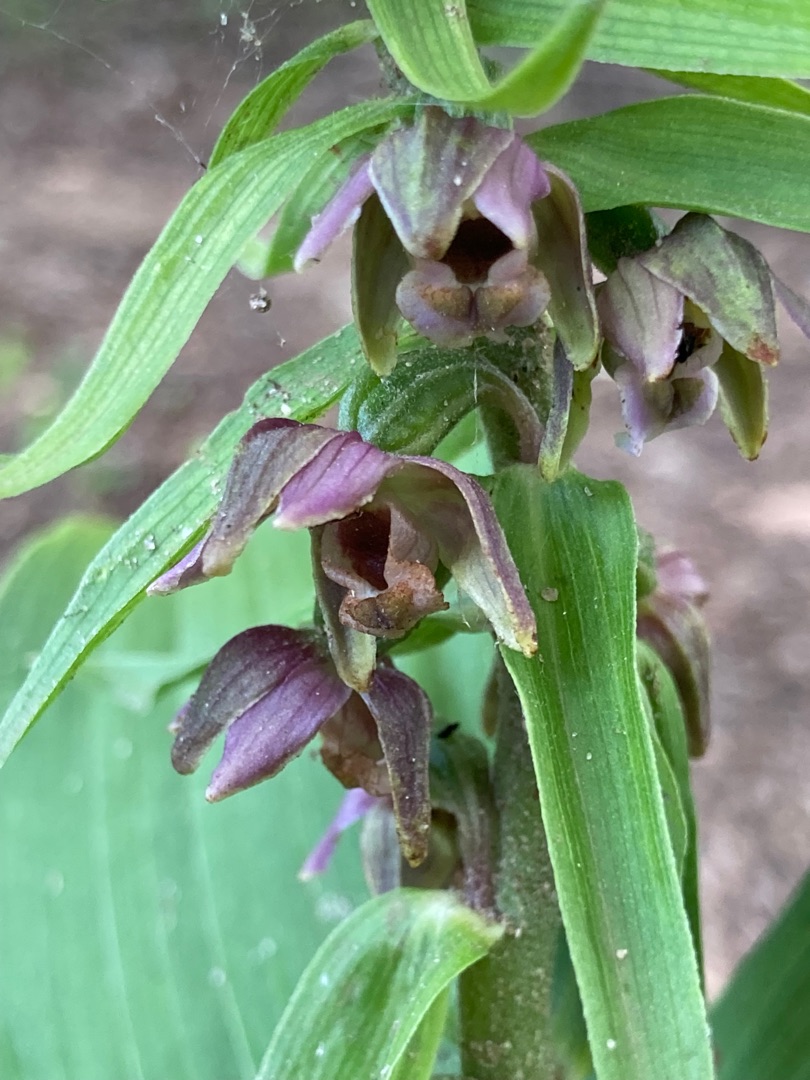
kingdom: Plantae
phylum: Tracheophyta
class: Liliopsida
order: Asparagales
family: Orchidaceae
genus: Epipactis
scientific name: Epipactis helleborine
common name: Skov-hullæbe (underart)
